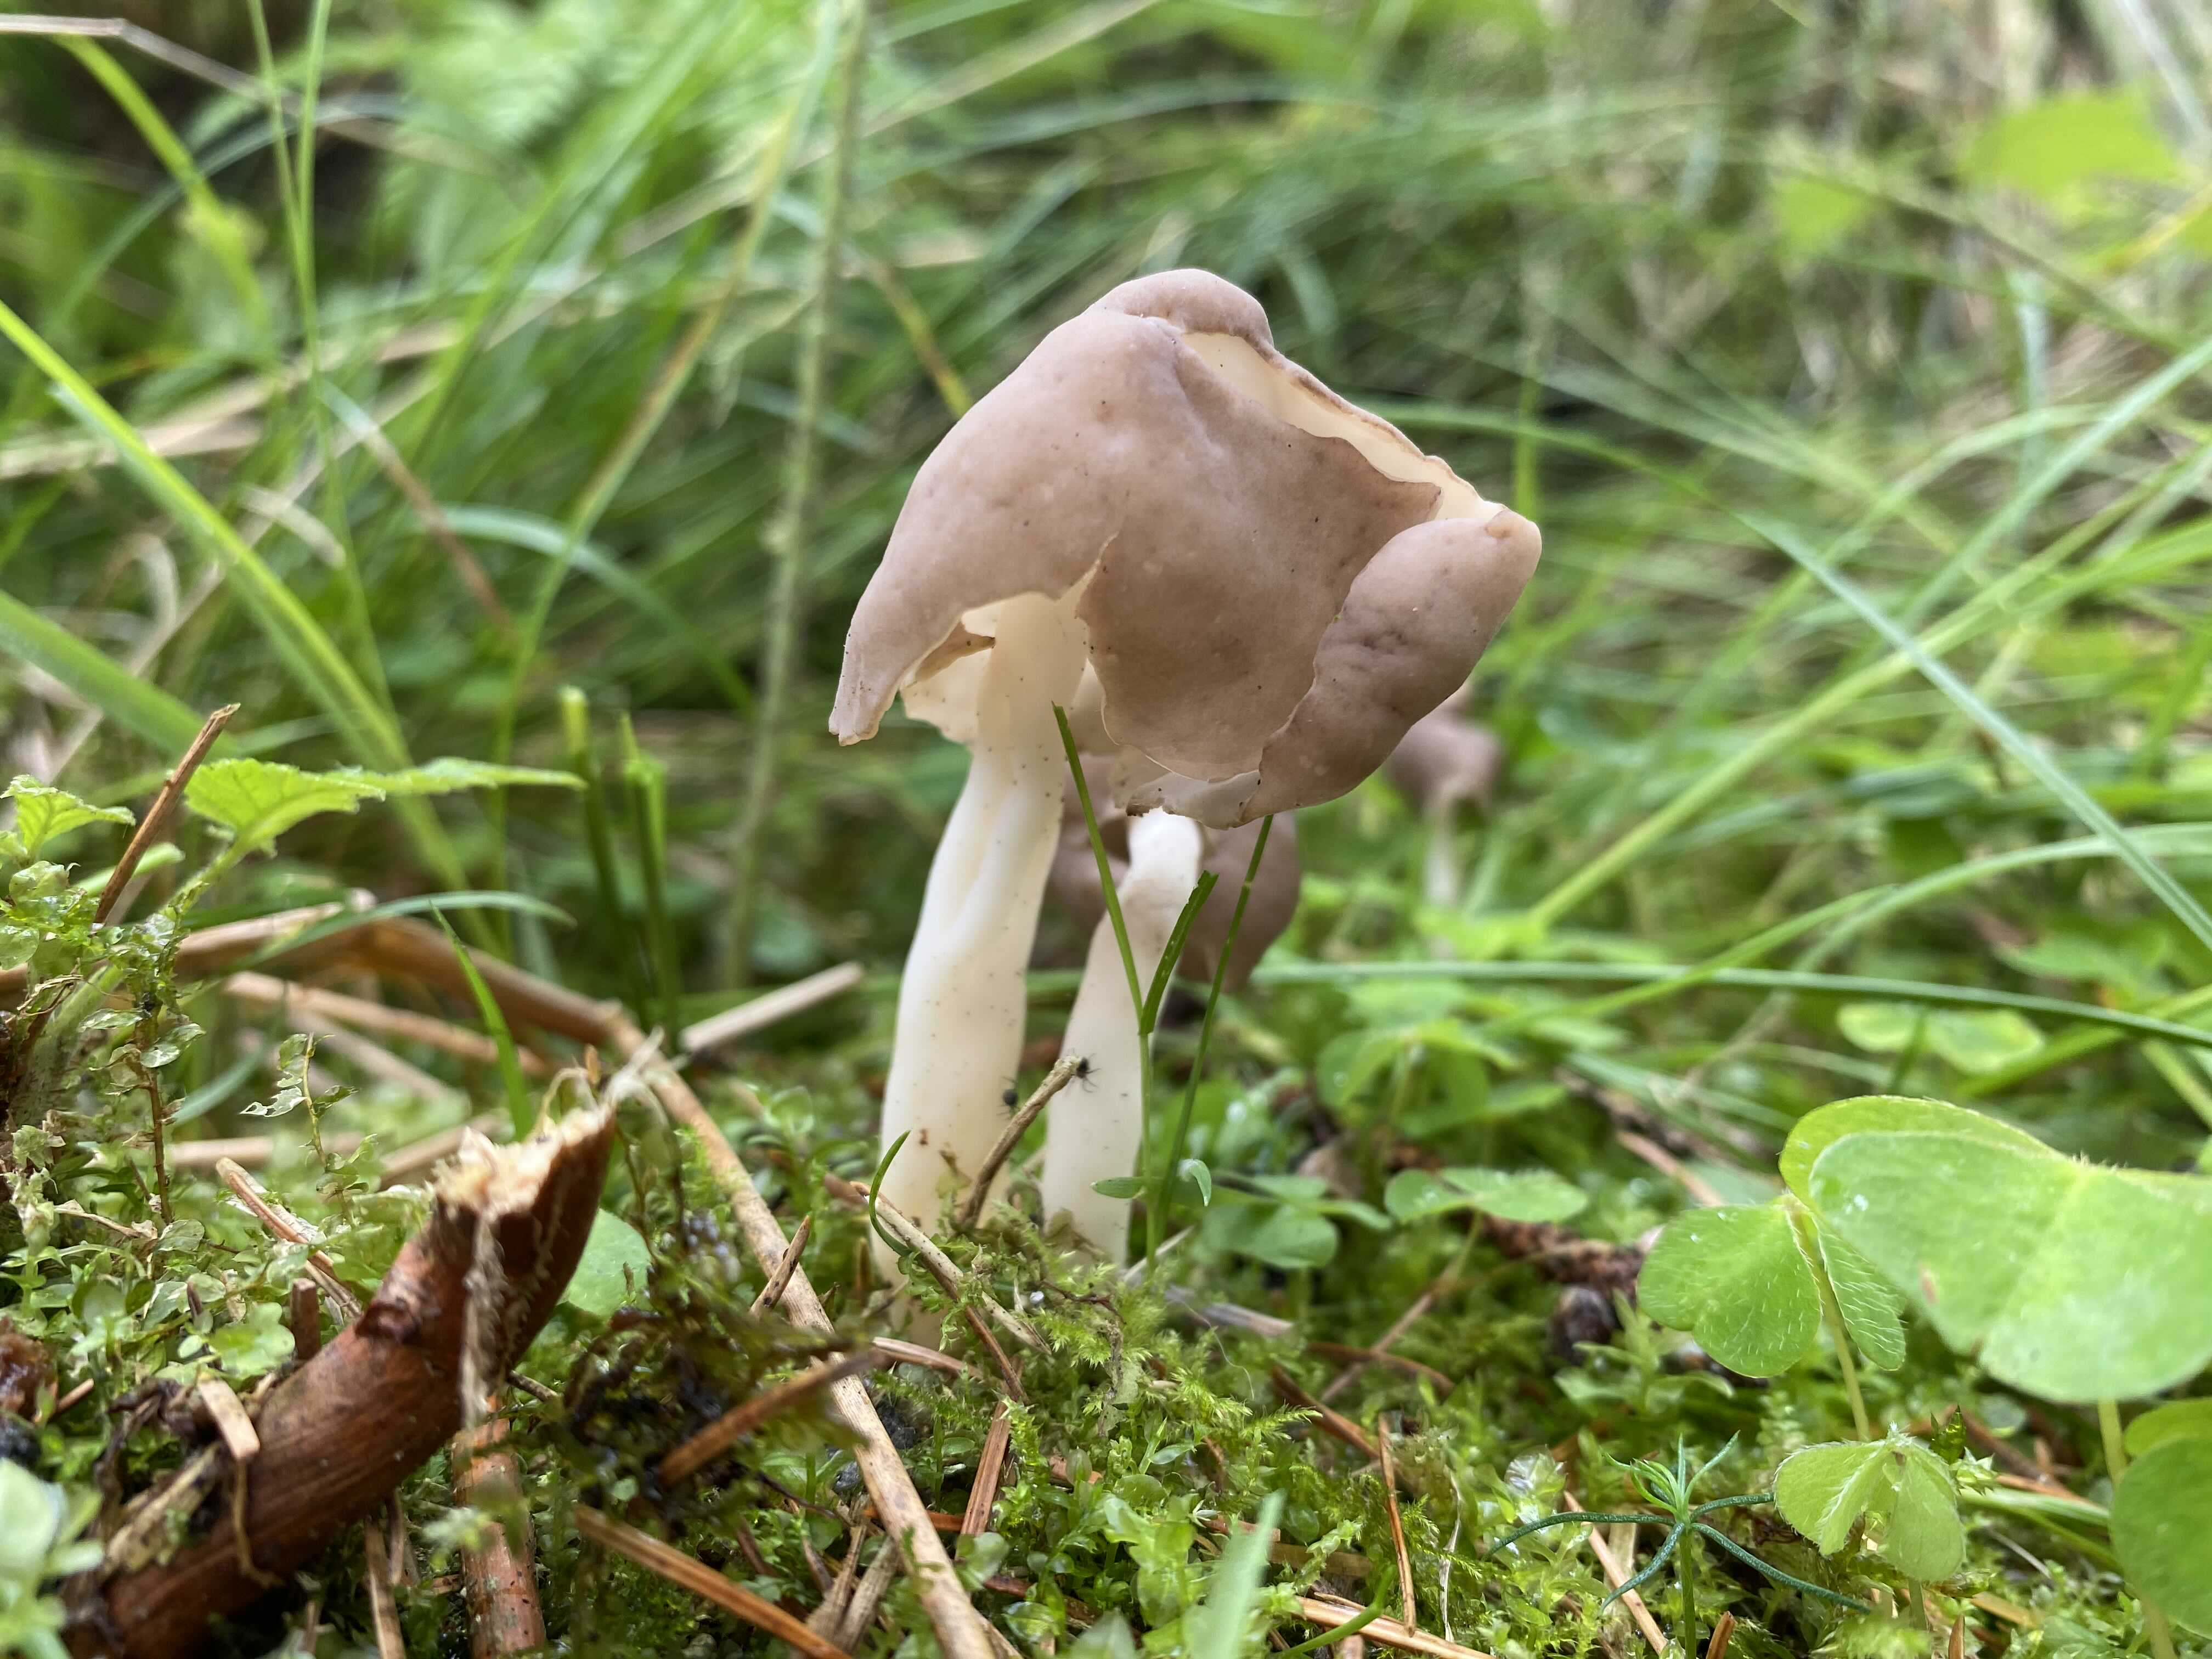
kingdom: Fungi
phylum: Ascomycota
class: Pezizomycetes
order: Pezizales
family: Helvellaceae
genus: Helvella
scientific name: Helvella elastica
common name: elastik-foldhat
